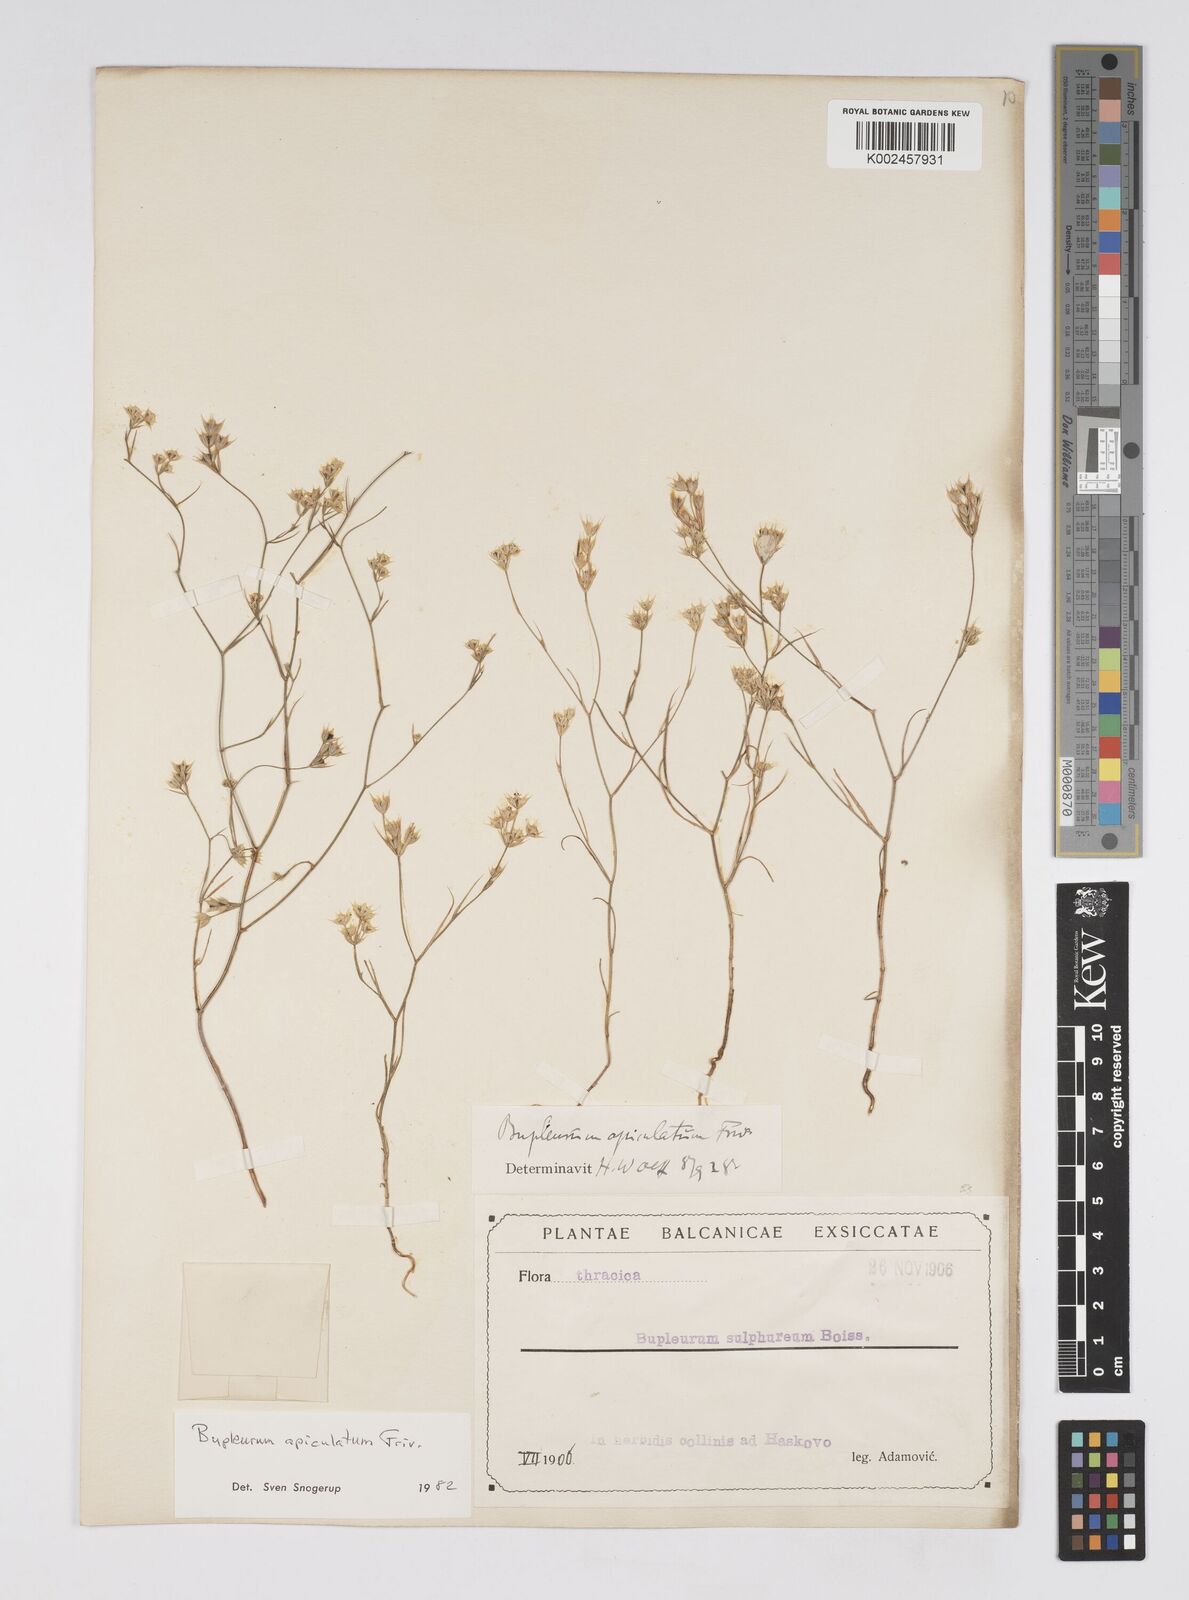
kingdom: Plantae
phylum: Tracheophyta
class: Magnoliopsida
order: Apiales
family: Apiaceae
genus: Bupleurum
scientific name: Bupleurum apiculatum
